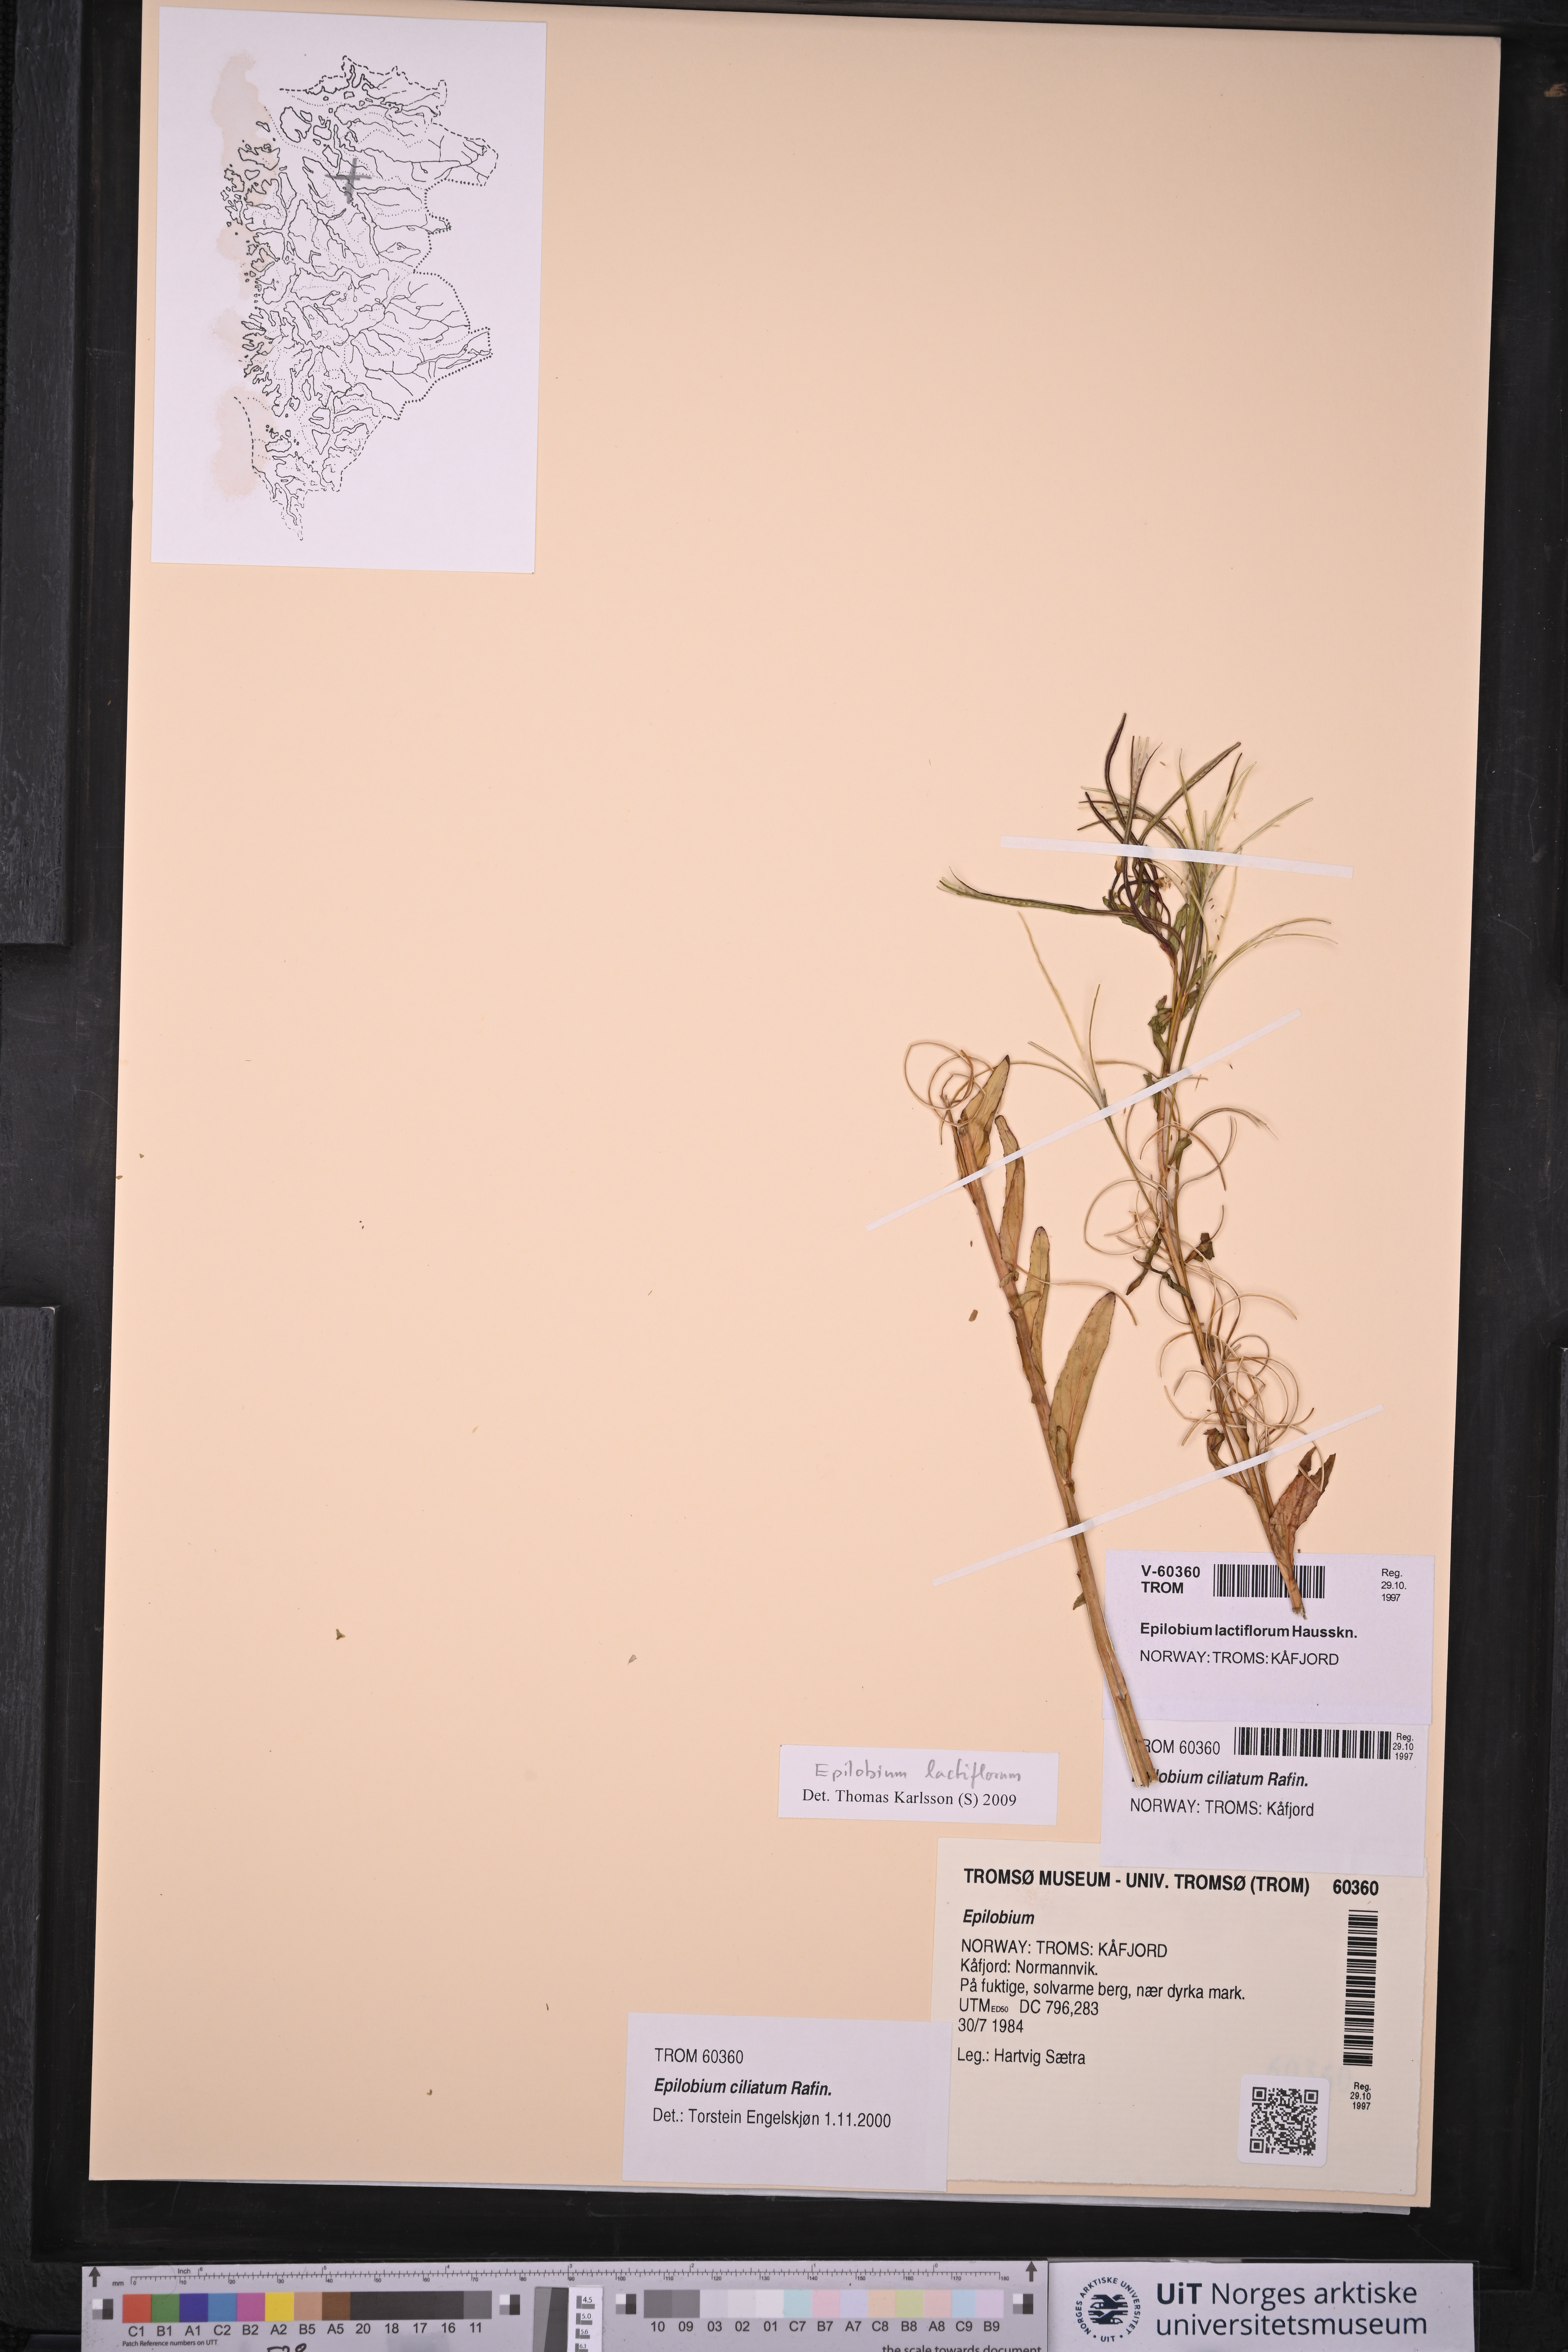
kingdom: Plantae
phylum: Tracheophyta
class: Magnoliopsida
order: Myrtales
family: Onagraceae
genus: Epilobium
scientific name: Epilobium lactiflorum
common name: Milkflower willowherb
